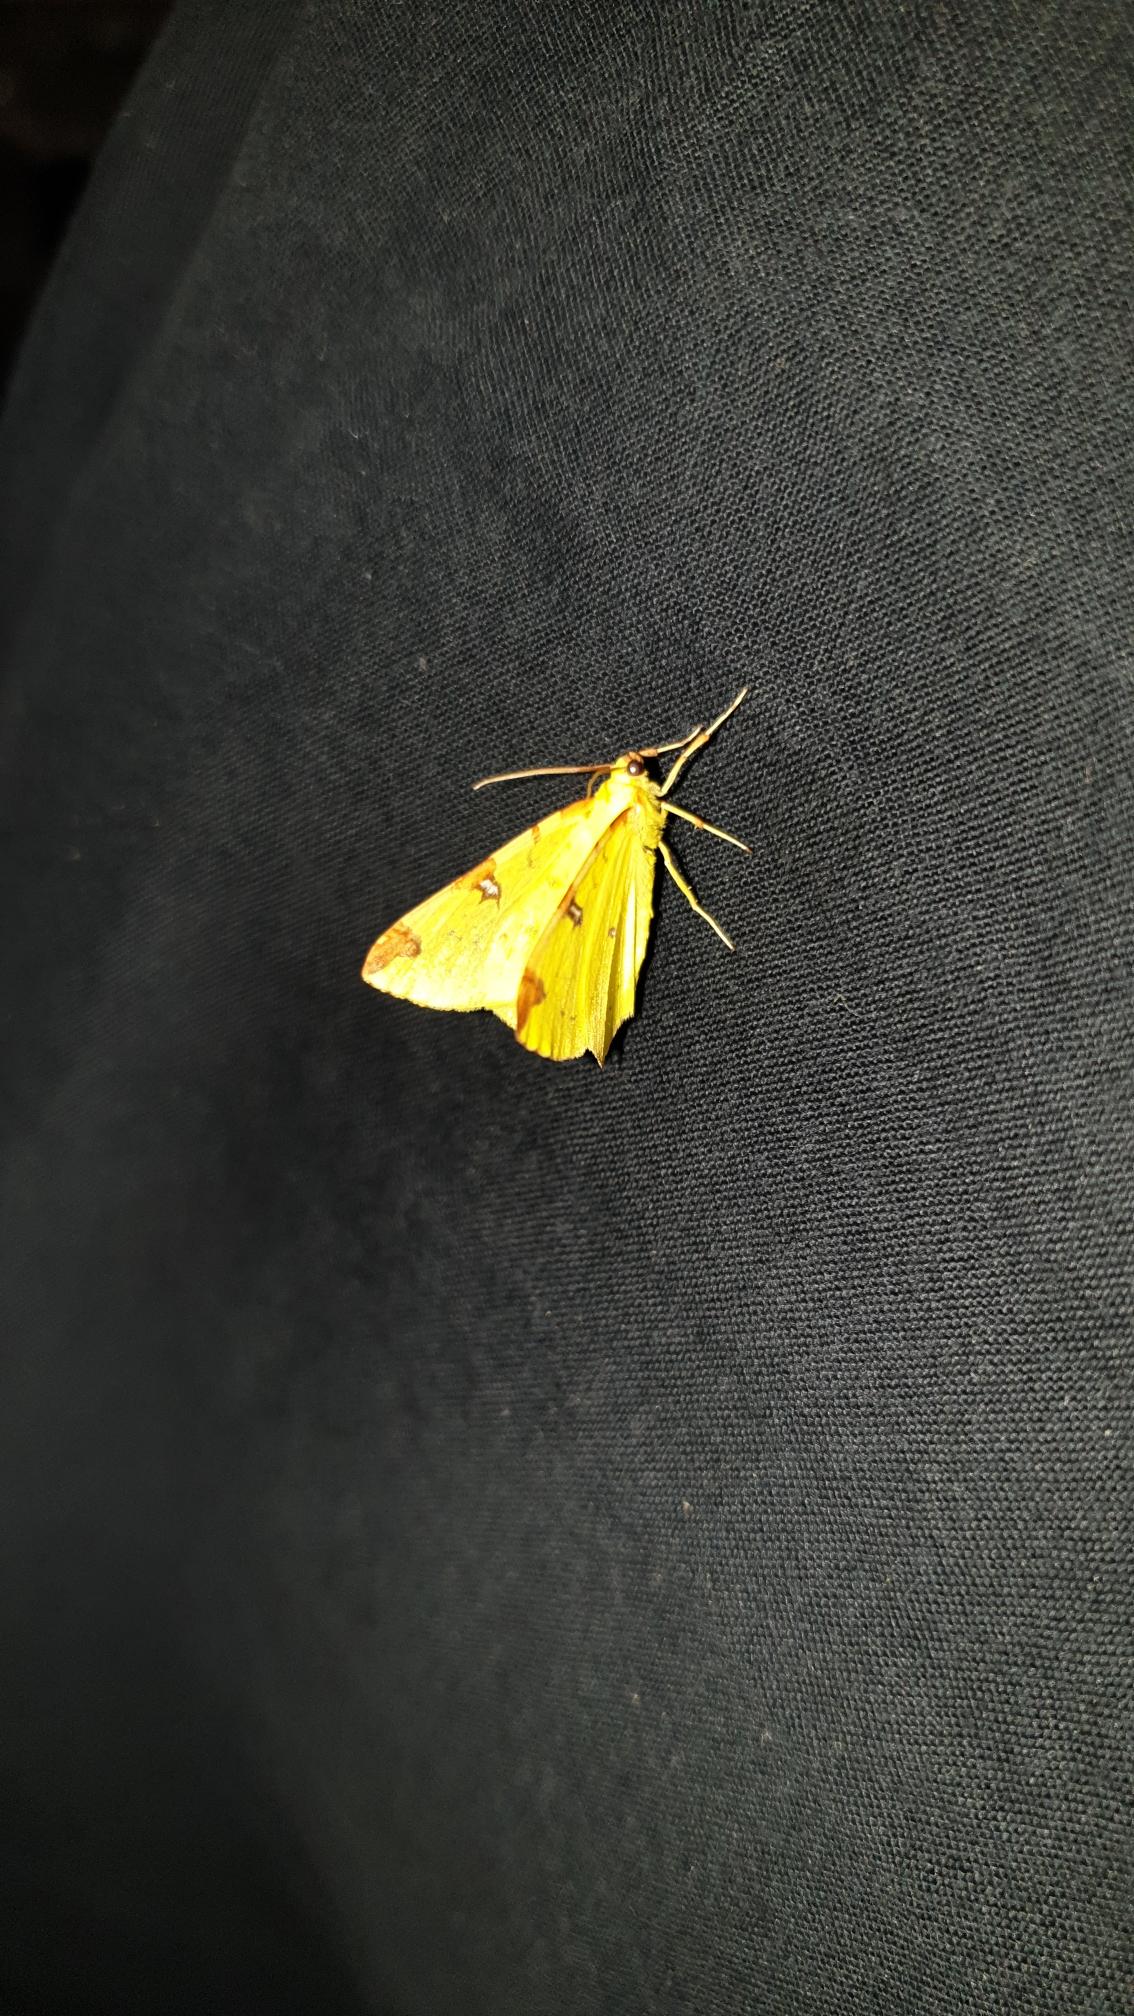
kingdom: Animalia
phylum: Arthropoda
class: Insecta
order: Lepidoptera
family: Geometridae
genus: Opisthograptis
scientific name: Opisthograptis luteolata
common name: Citronmåler
